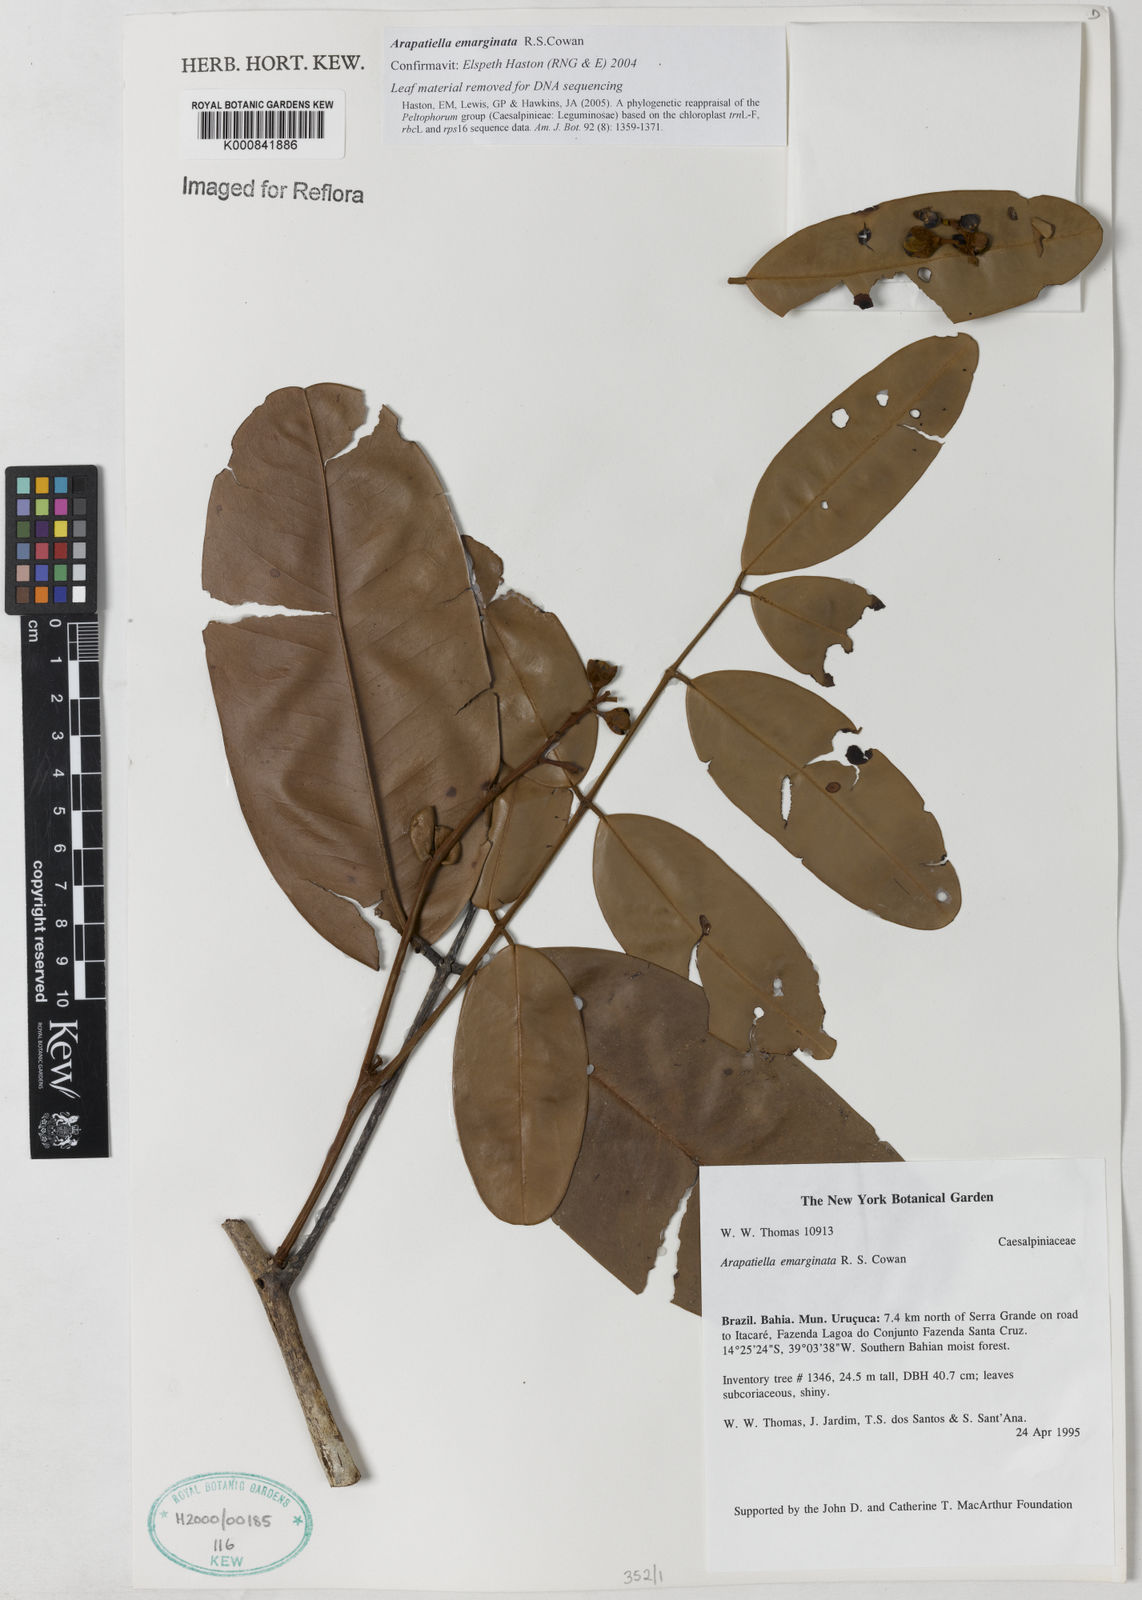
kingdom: Plantae
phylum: Tracheophyta
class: Magnoliopsida
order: Fabales
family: Fabaceae
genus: Arapatiella
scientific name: Arapatiella emarginata
